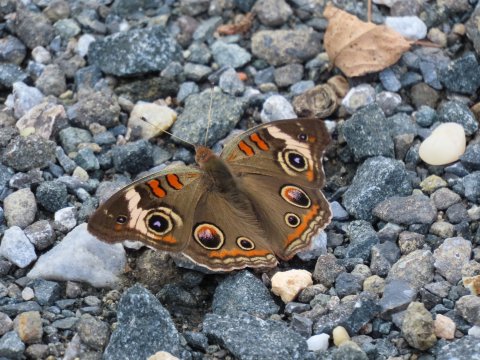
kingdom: Animalia
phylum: Arthropoda
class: Insecta
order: Lepidoptera
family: Nymphalidae
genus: Junonia
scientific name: Junonia coenia
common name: Common Buckeye
